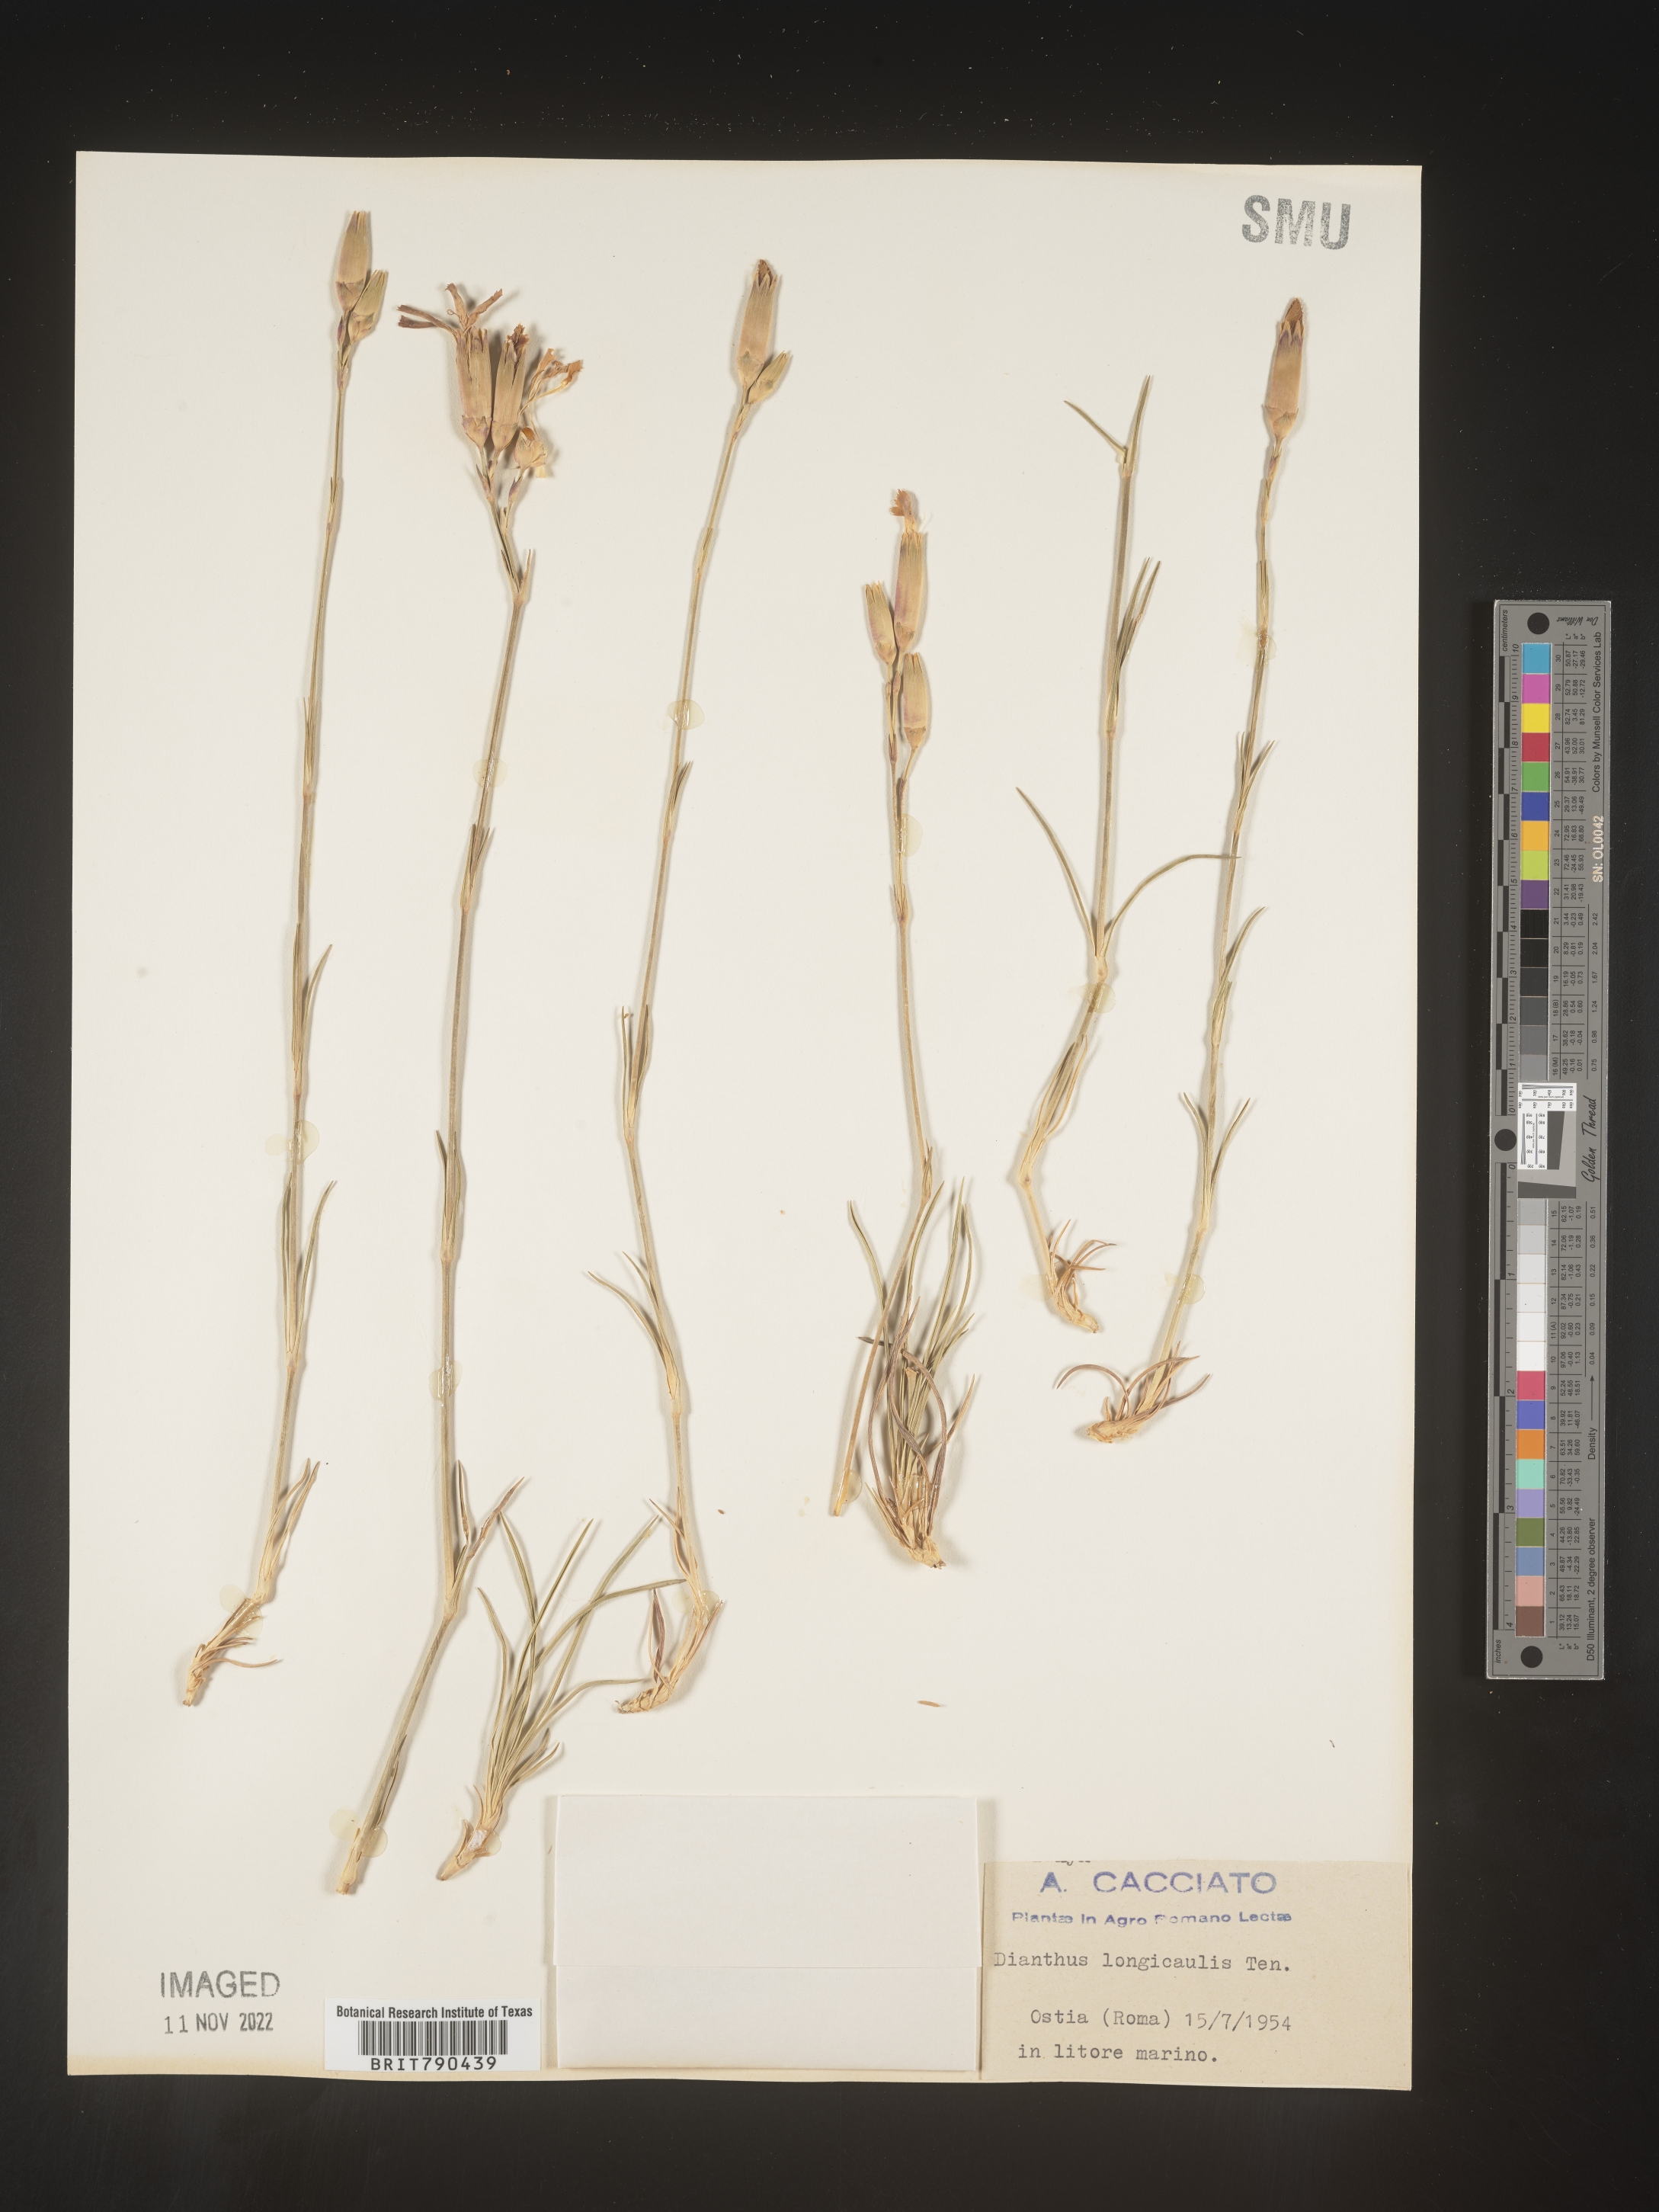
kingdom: Plantae
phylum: Tracheophyta
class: Magnoliopsida
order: Caryophyllales
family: Caryophyllaceae
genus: Dianthus
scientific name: Dianthus
